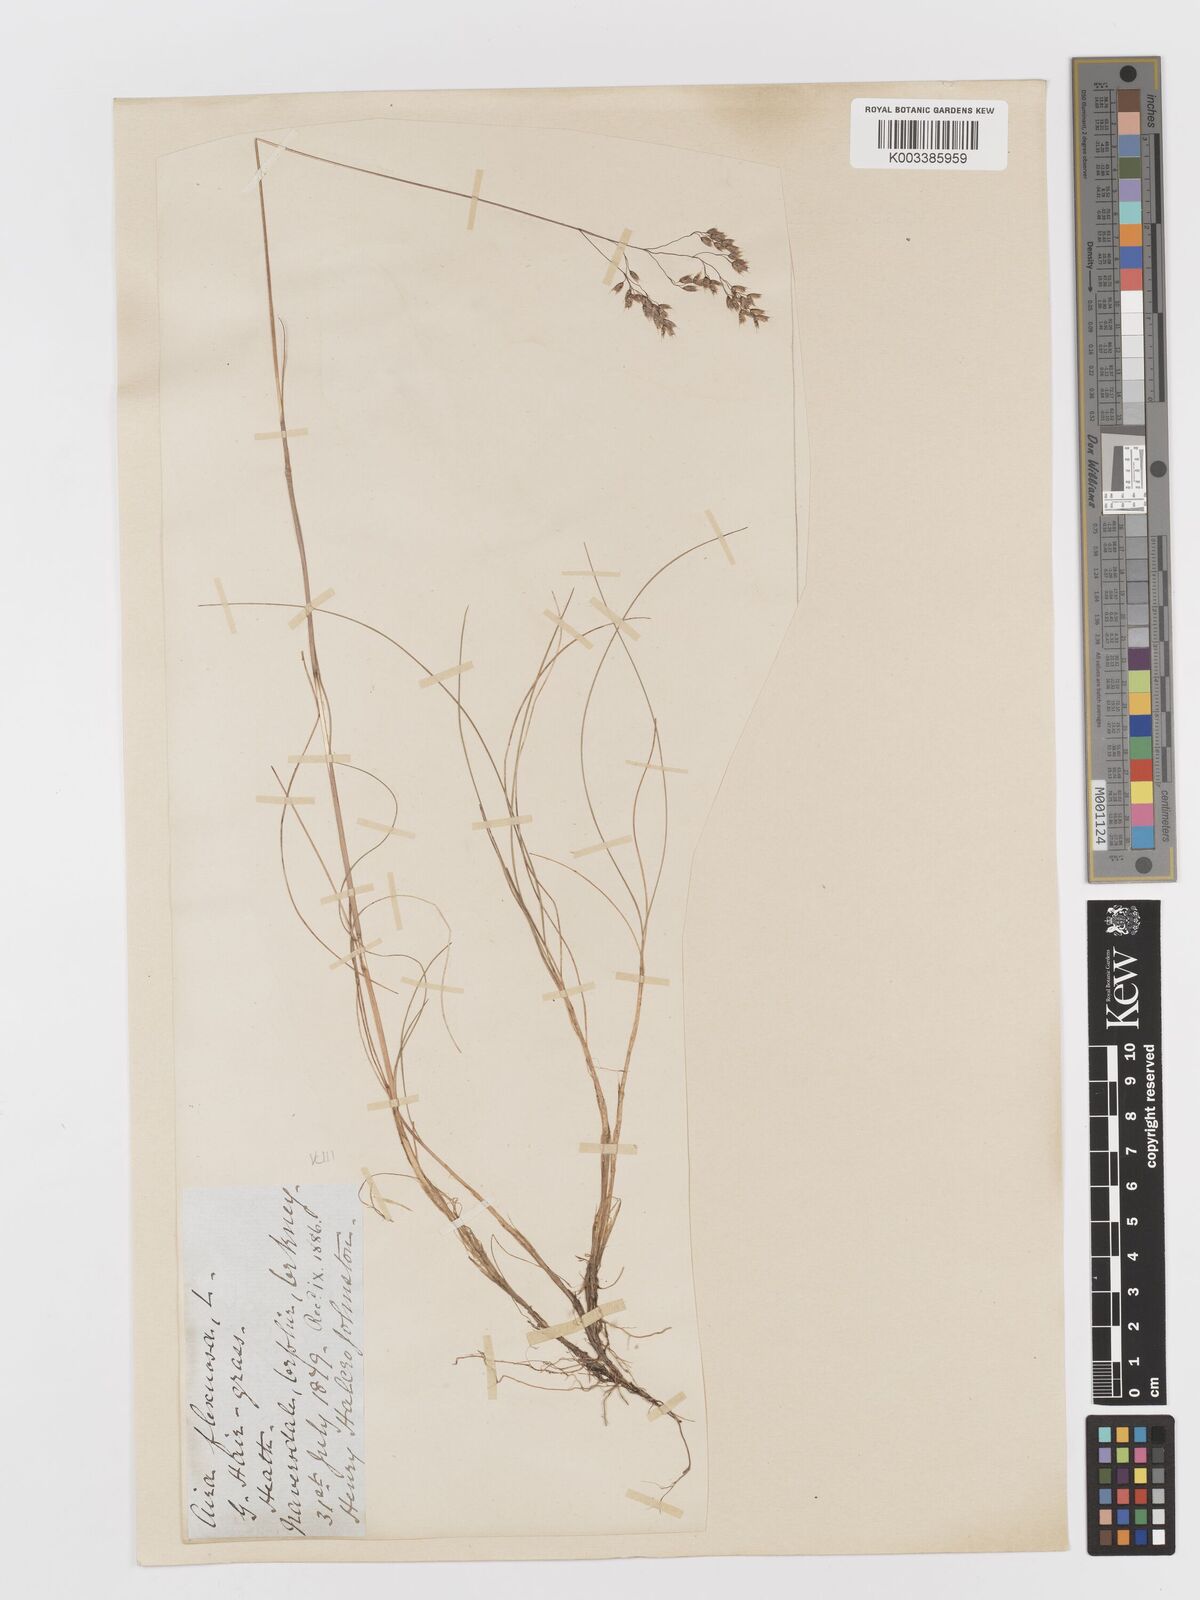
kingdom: Plantae
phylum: Tracheophyta
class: Liliopsida
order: Poales
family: Poaceae
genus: Avenella
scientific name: Avenella flexuosa
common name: Wavy hairgrass
